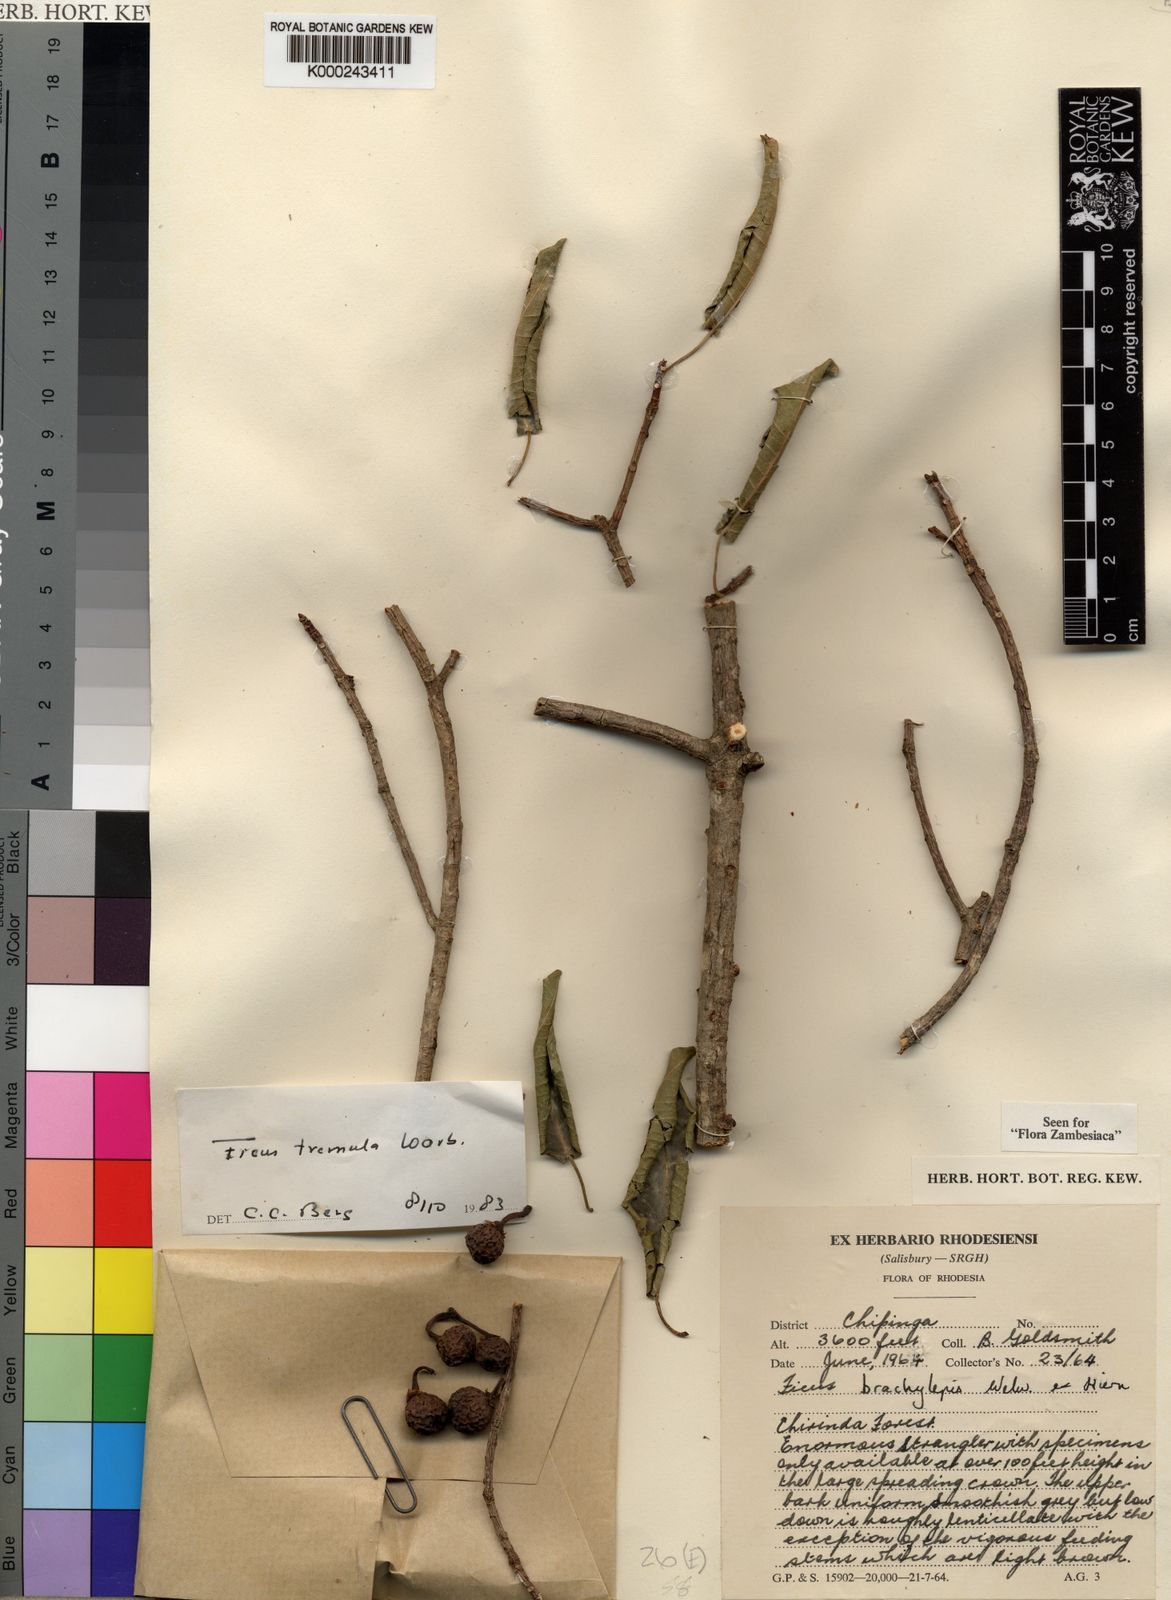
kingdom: Plantae
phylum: Tracheophyta
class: Magnoliopsida
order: Rosales
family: Moraceae
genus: Ficus
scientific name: Ficus chirindensis
